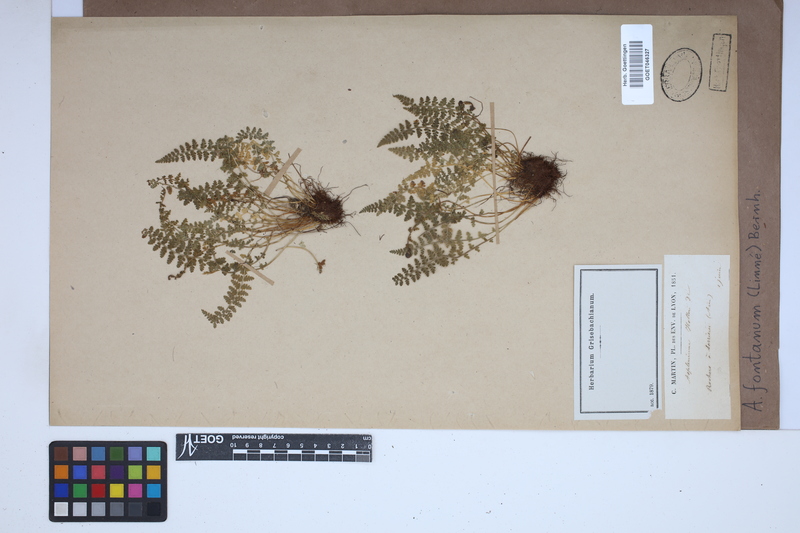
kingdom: Plantae
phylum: Tracheophyta
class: Polypodiopsida
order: Polypodiales
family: Aspleniaceae
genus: Asplenium
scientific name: Asplenium fontanum
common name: Fountain spleenwort
